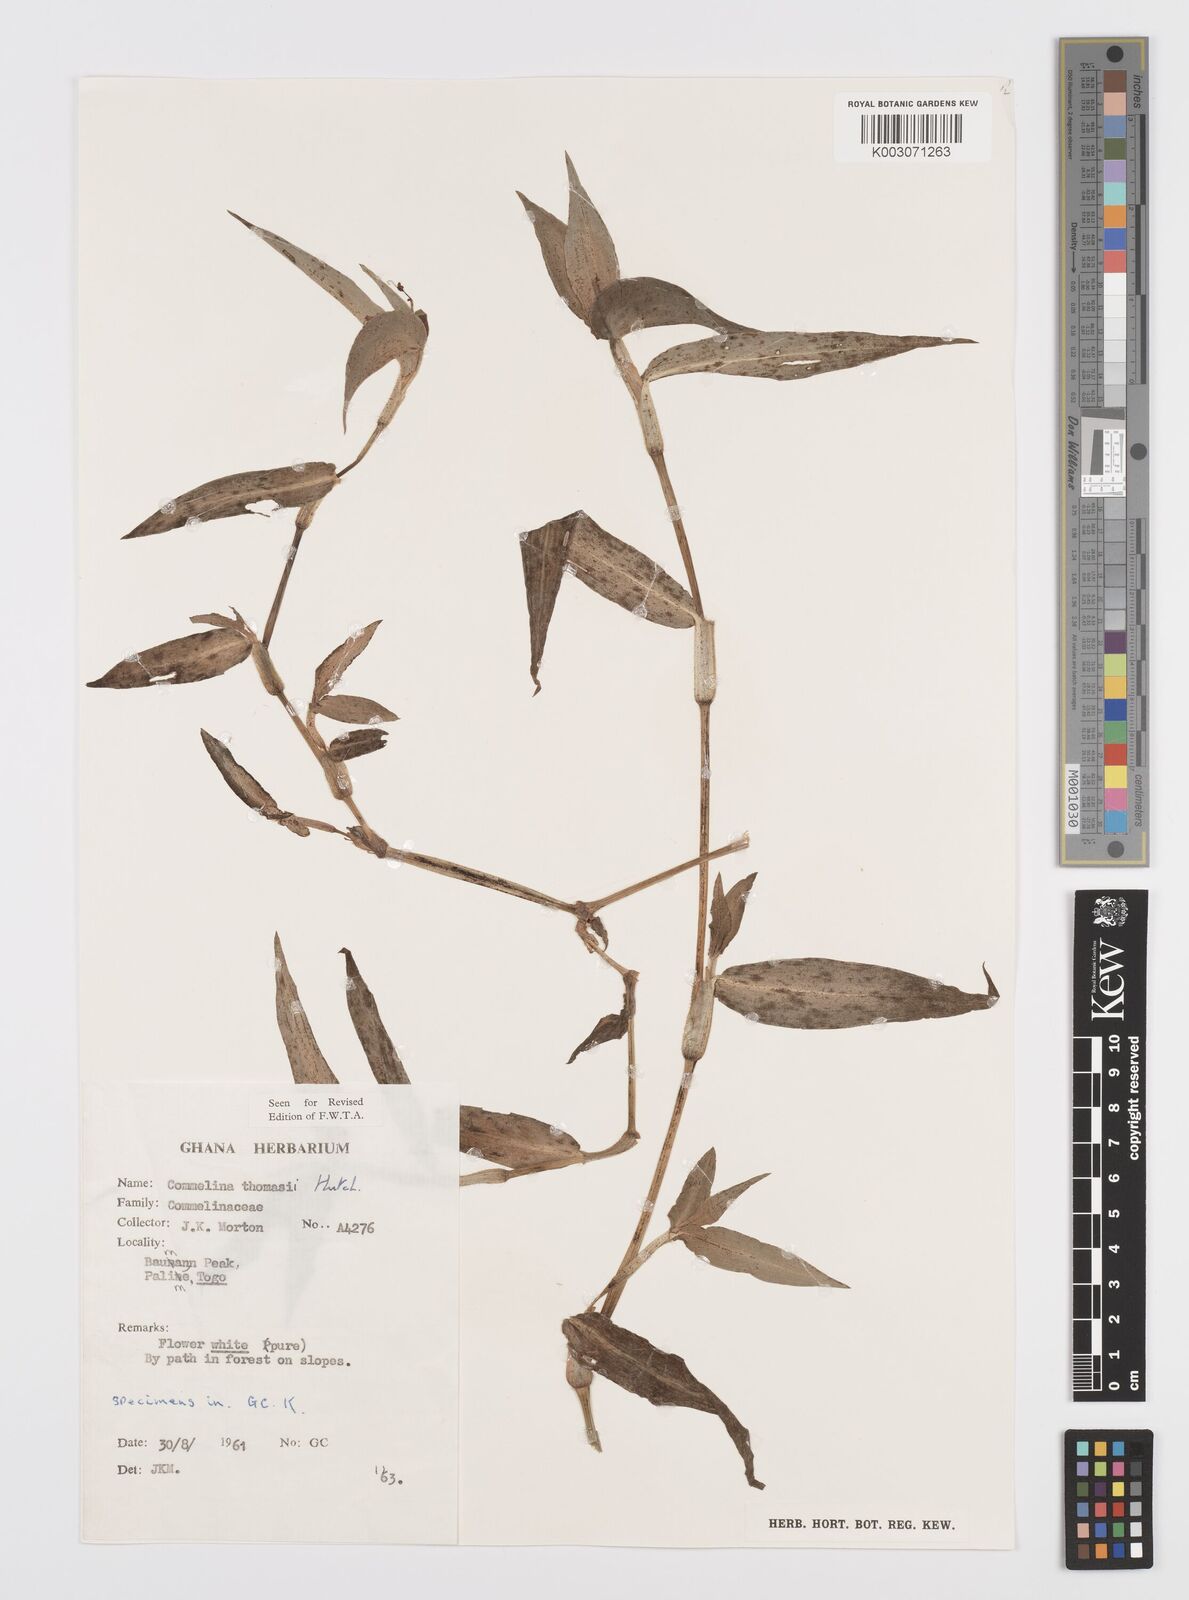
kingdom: Plantae
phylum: Tracheophyta
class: Liliopsida
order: Commelinales
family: Commelinaceae
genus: Commelina
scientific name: Commelina acutispatha
